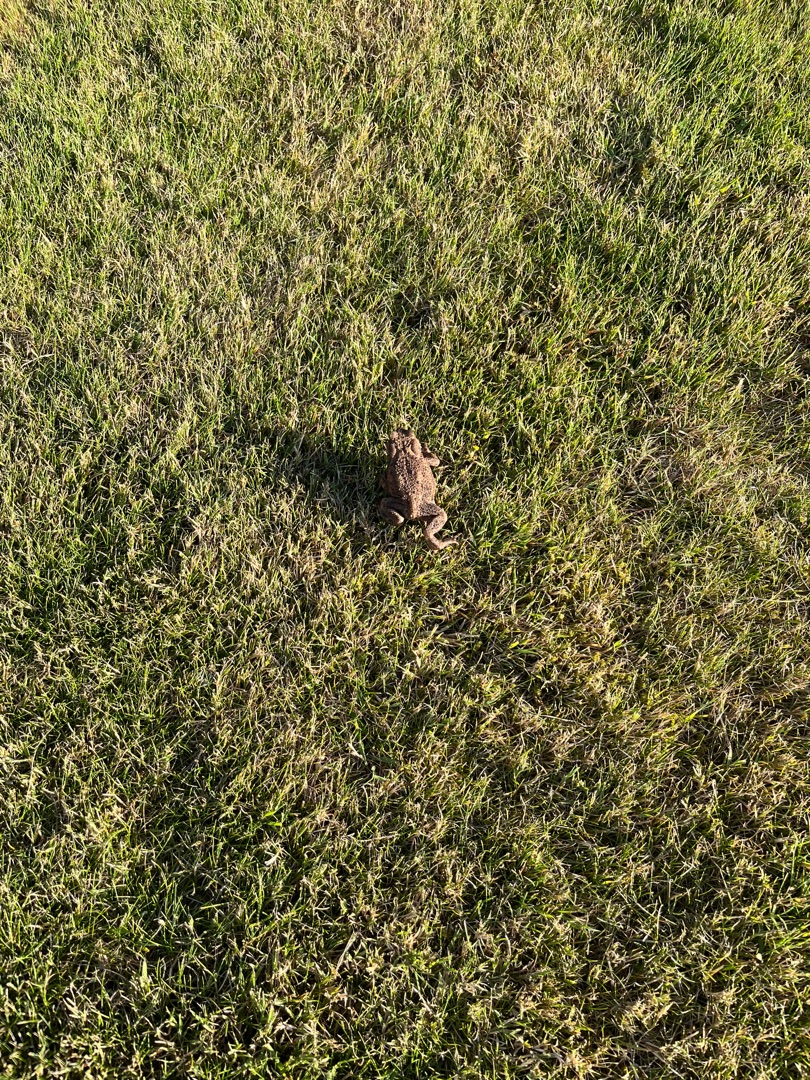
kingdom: Animalia
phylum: Chordata
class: Amphibia
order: Anura
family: Bufonidae
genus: Bufo
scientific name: Bufo bufo
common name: Skrubtudse
